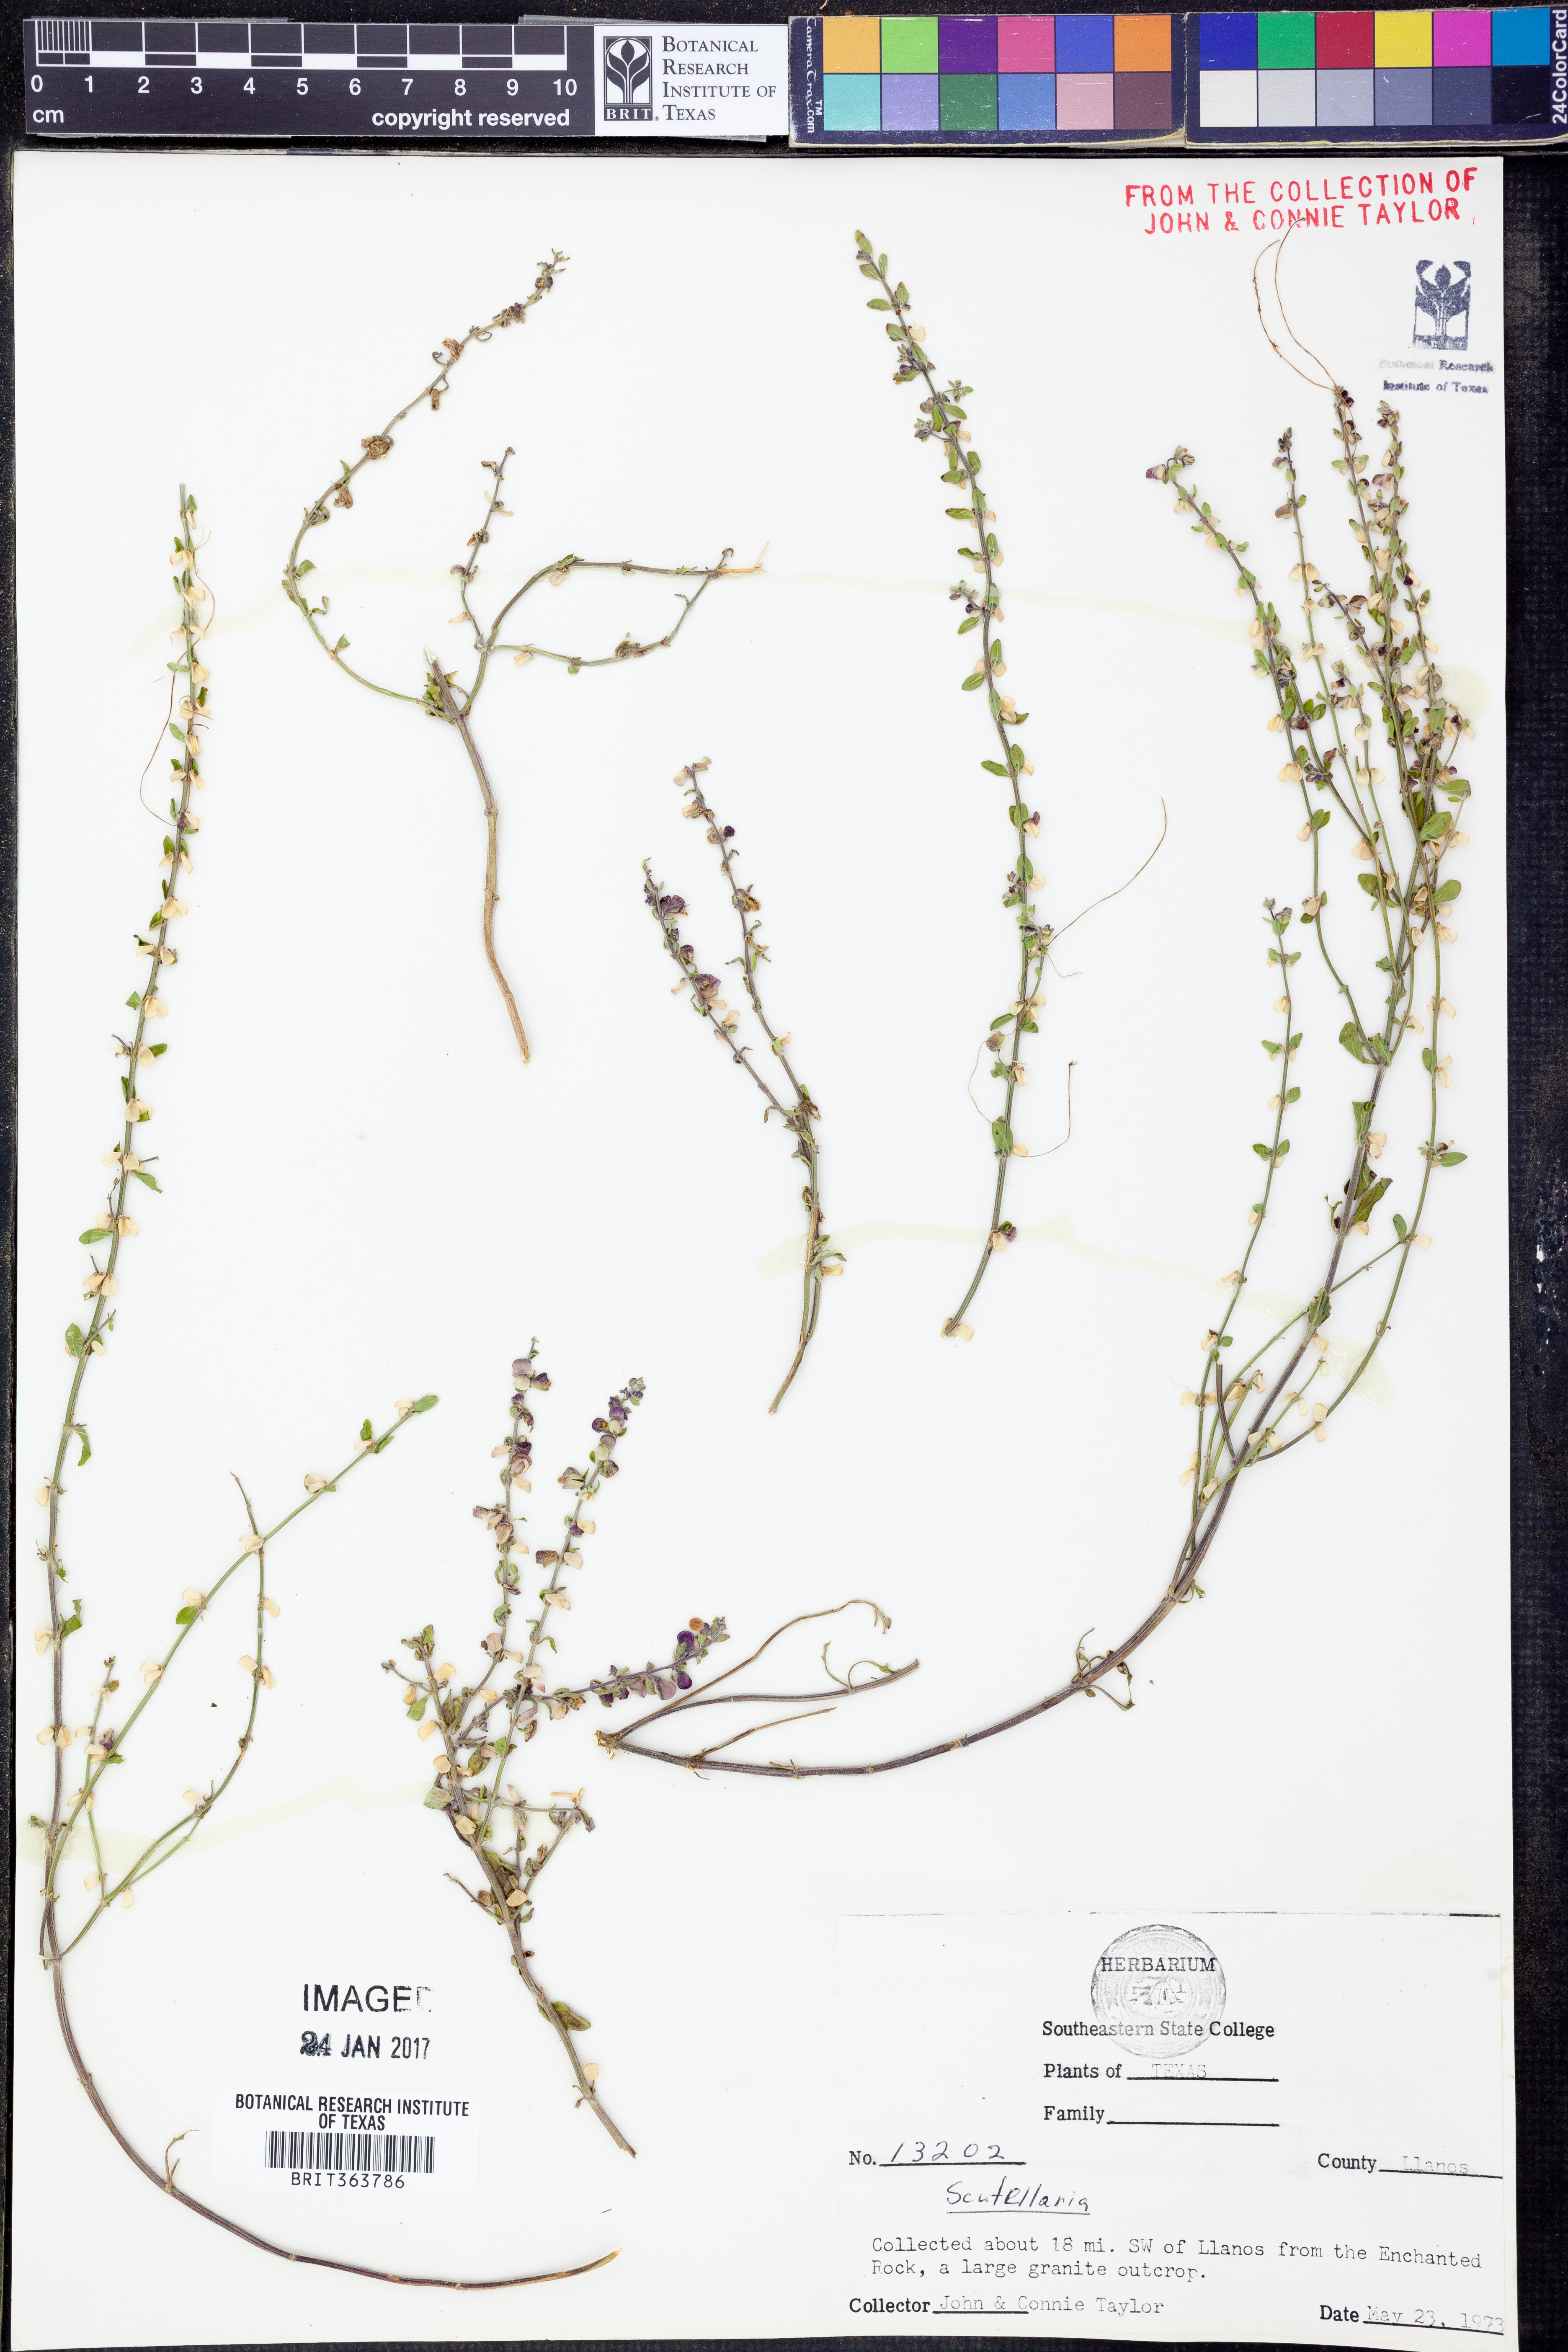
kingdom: Plantae
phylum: Tracheophyta
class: Magnoliopsida
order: Lamiales
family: Lamiaceae
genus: Scutellaria
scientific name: Scutellaria
